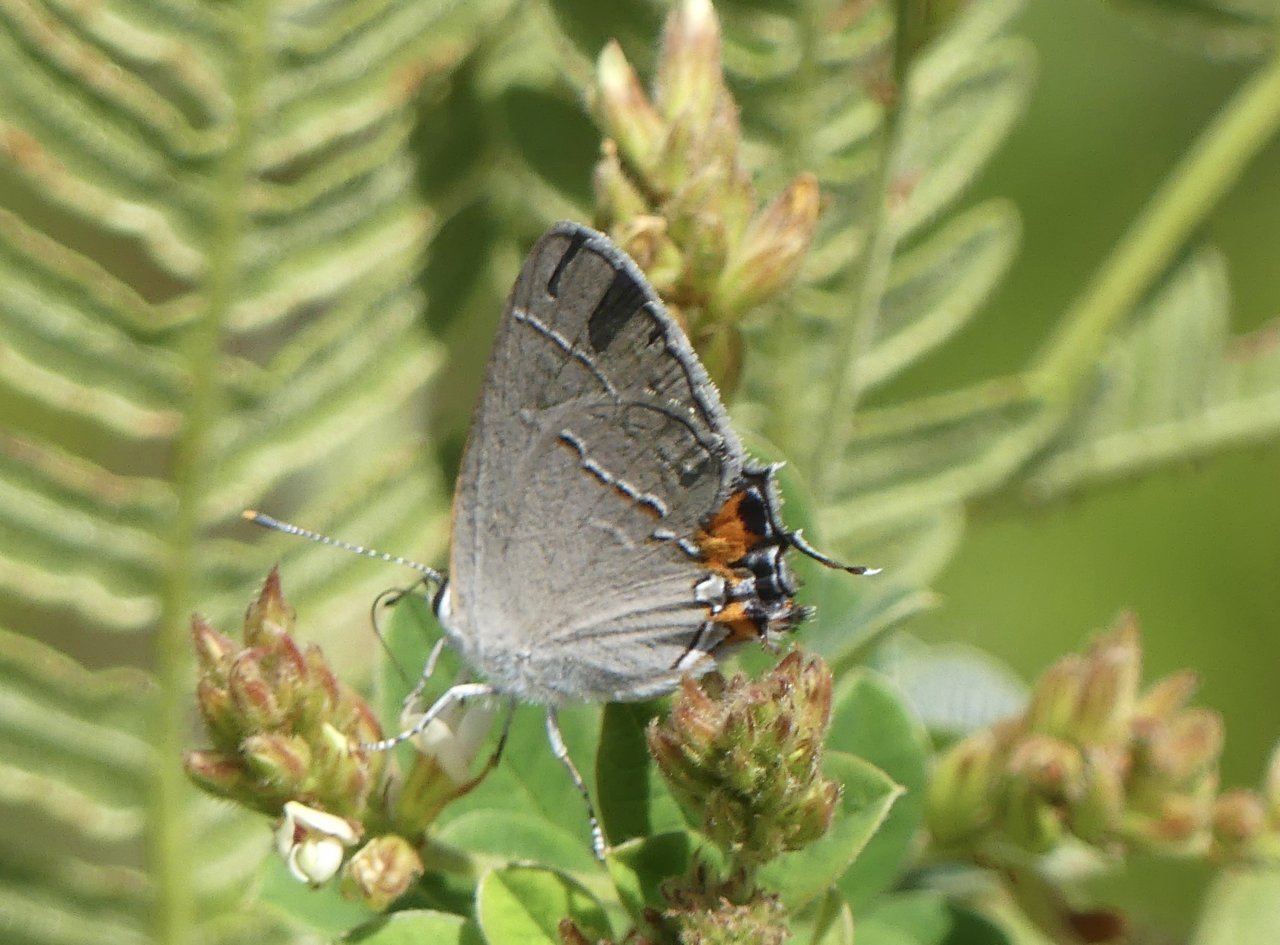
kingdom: Animalia
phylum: Arthropoda
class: Insecta
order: Lepidoptera
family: Lycaenidae
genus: Strymon
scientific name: Strymon melinus
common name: Gray Hairstreak
